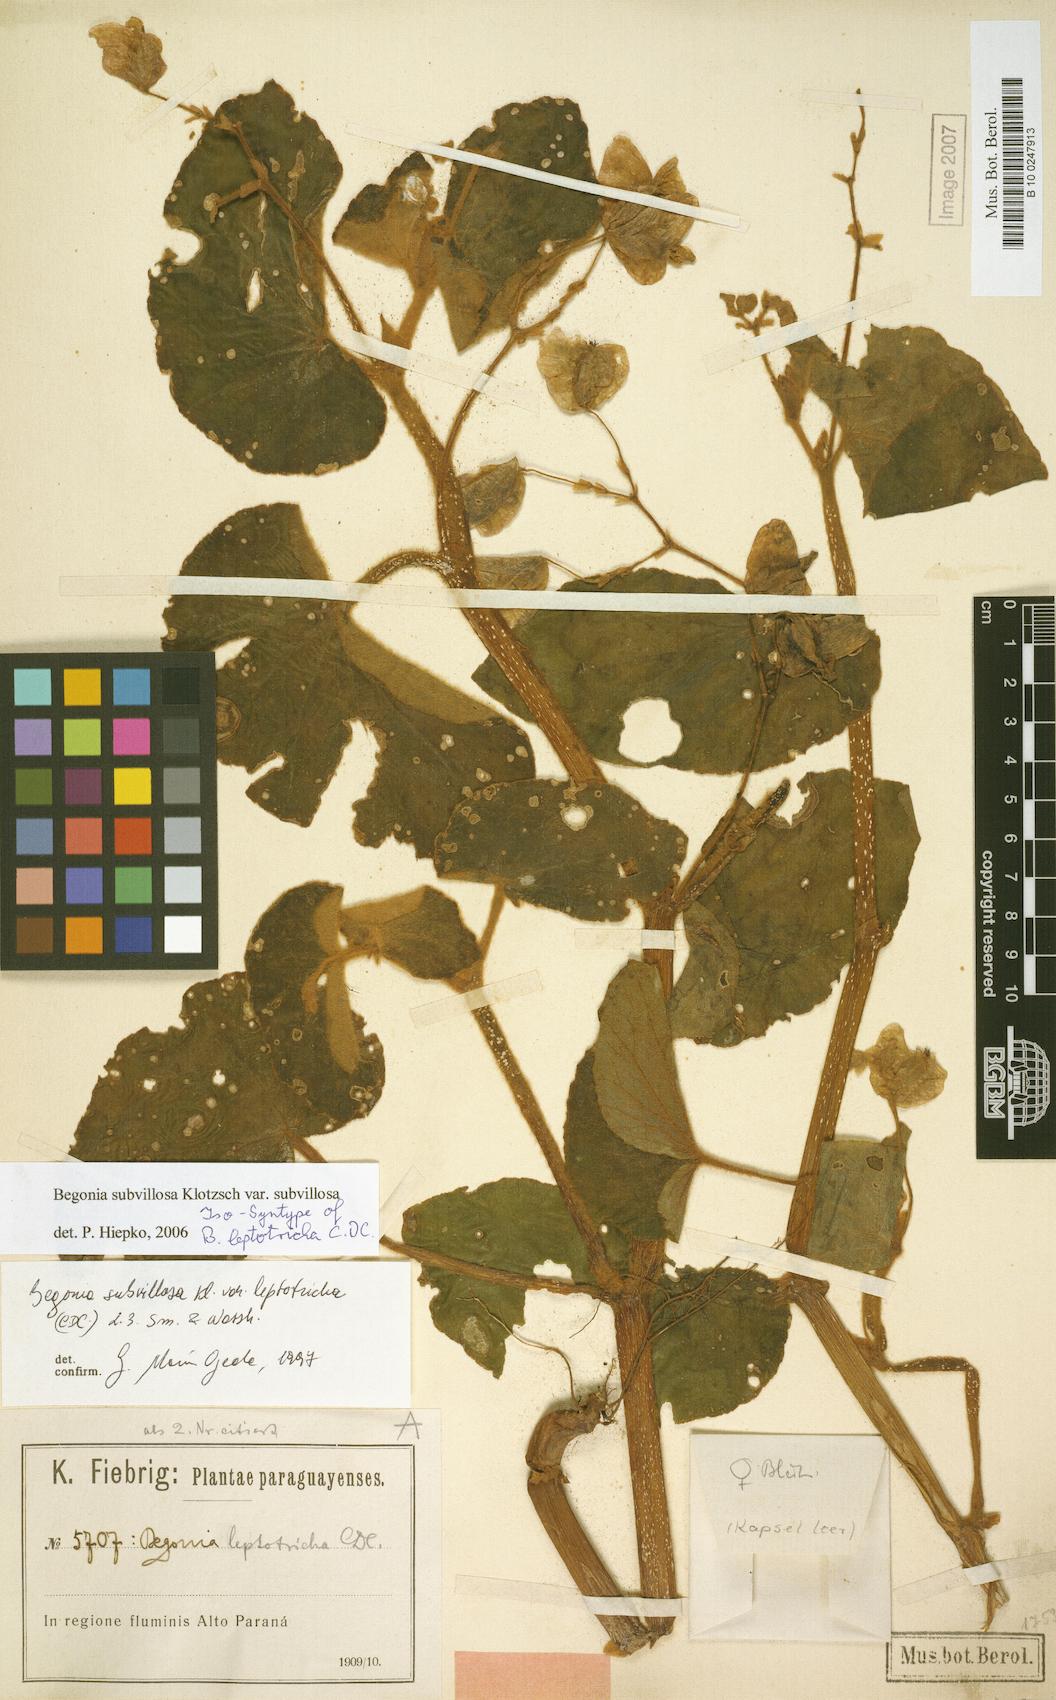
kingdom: Plantae
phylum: Tracheophyta
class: Magnoliopsida
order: Cucurbitales
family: Begoniaceae
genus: Begonia
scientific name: Begonia subvillosa
